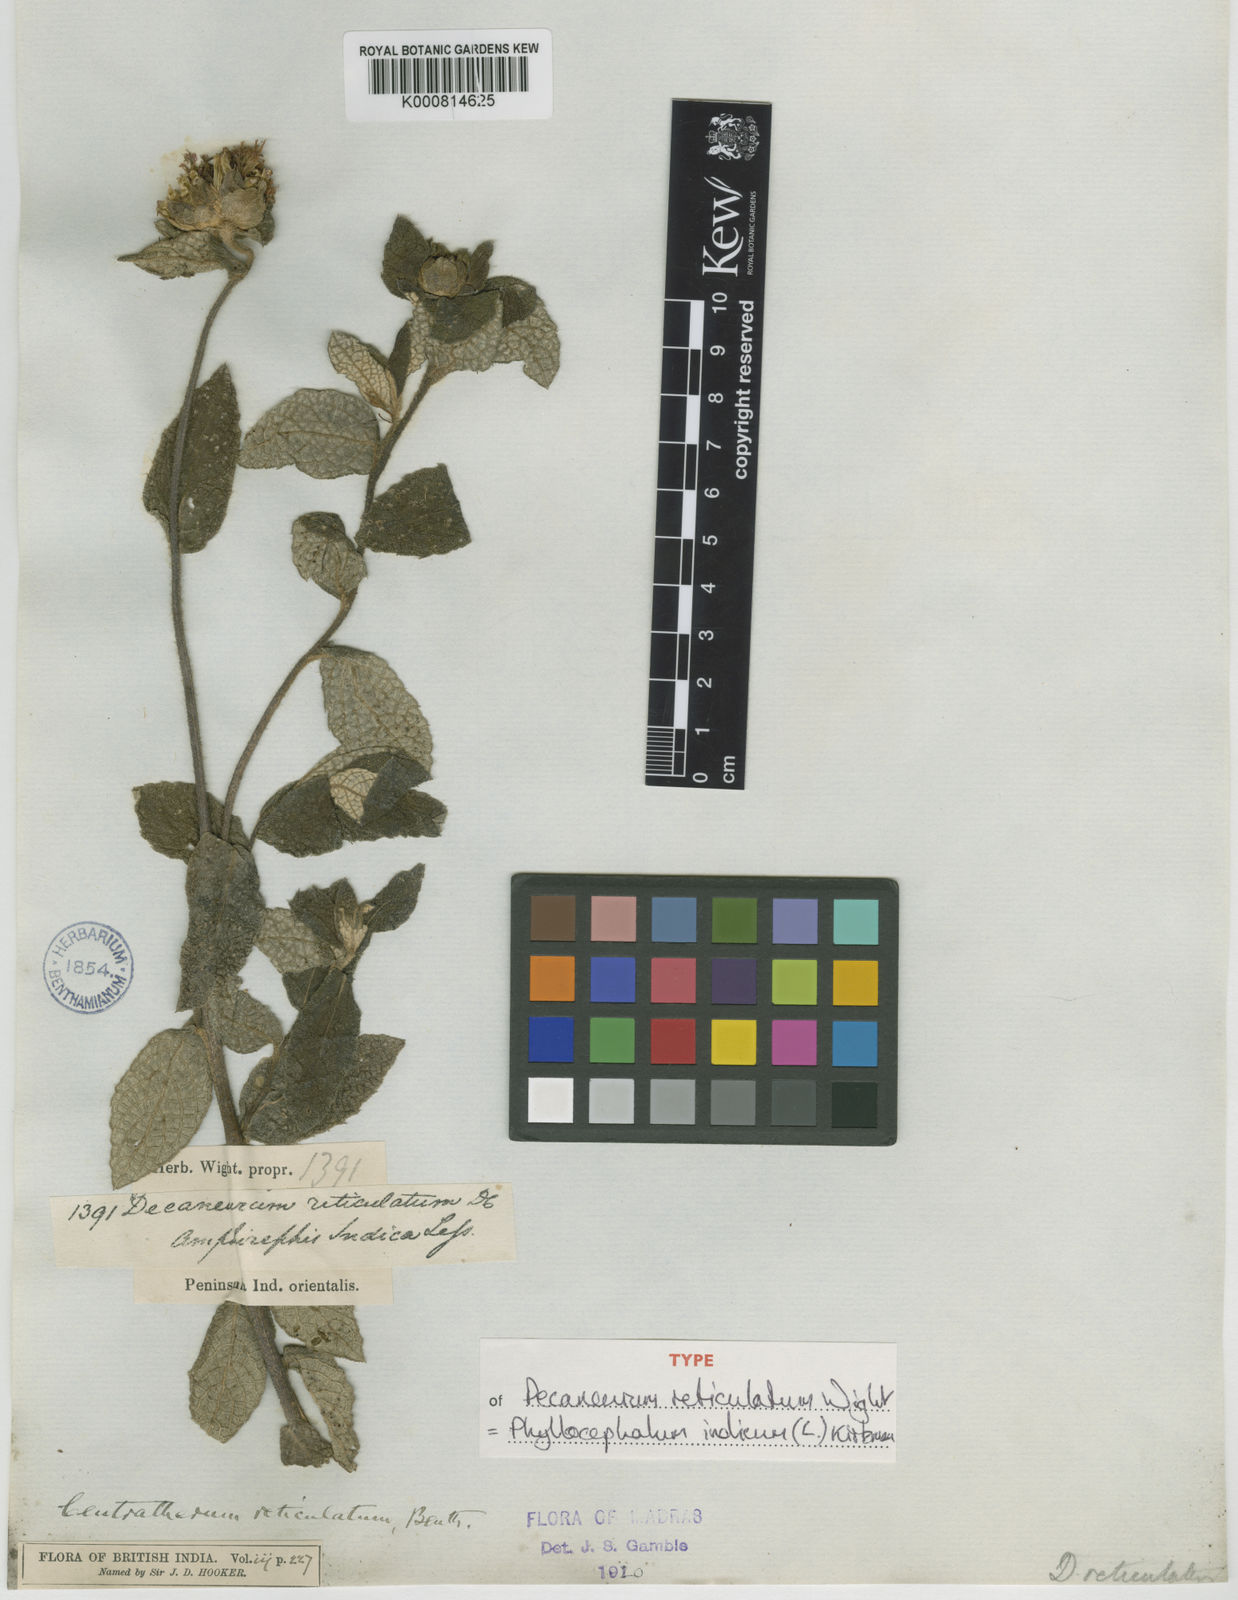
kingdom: Plantae
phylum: Tracheophyta
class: Magnoliopsida
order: Asterales
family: Asteraceae
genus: Phyllocephalum
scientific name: Phyllocephalum indicum
